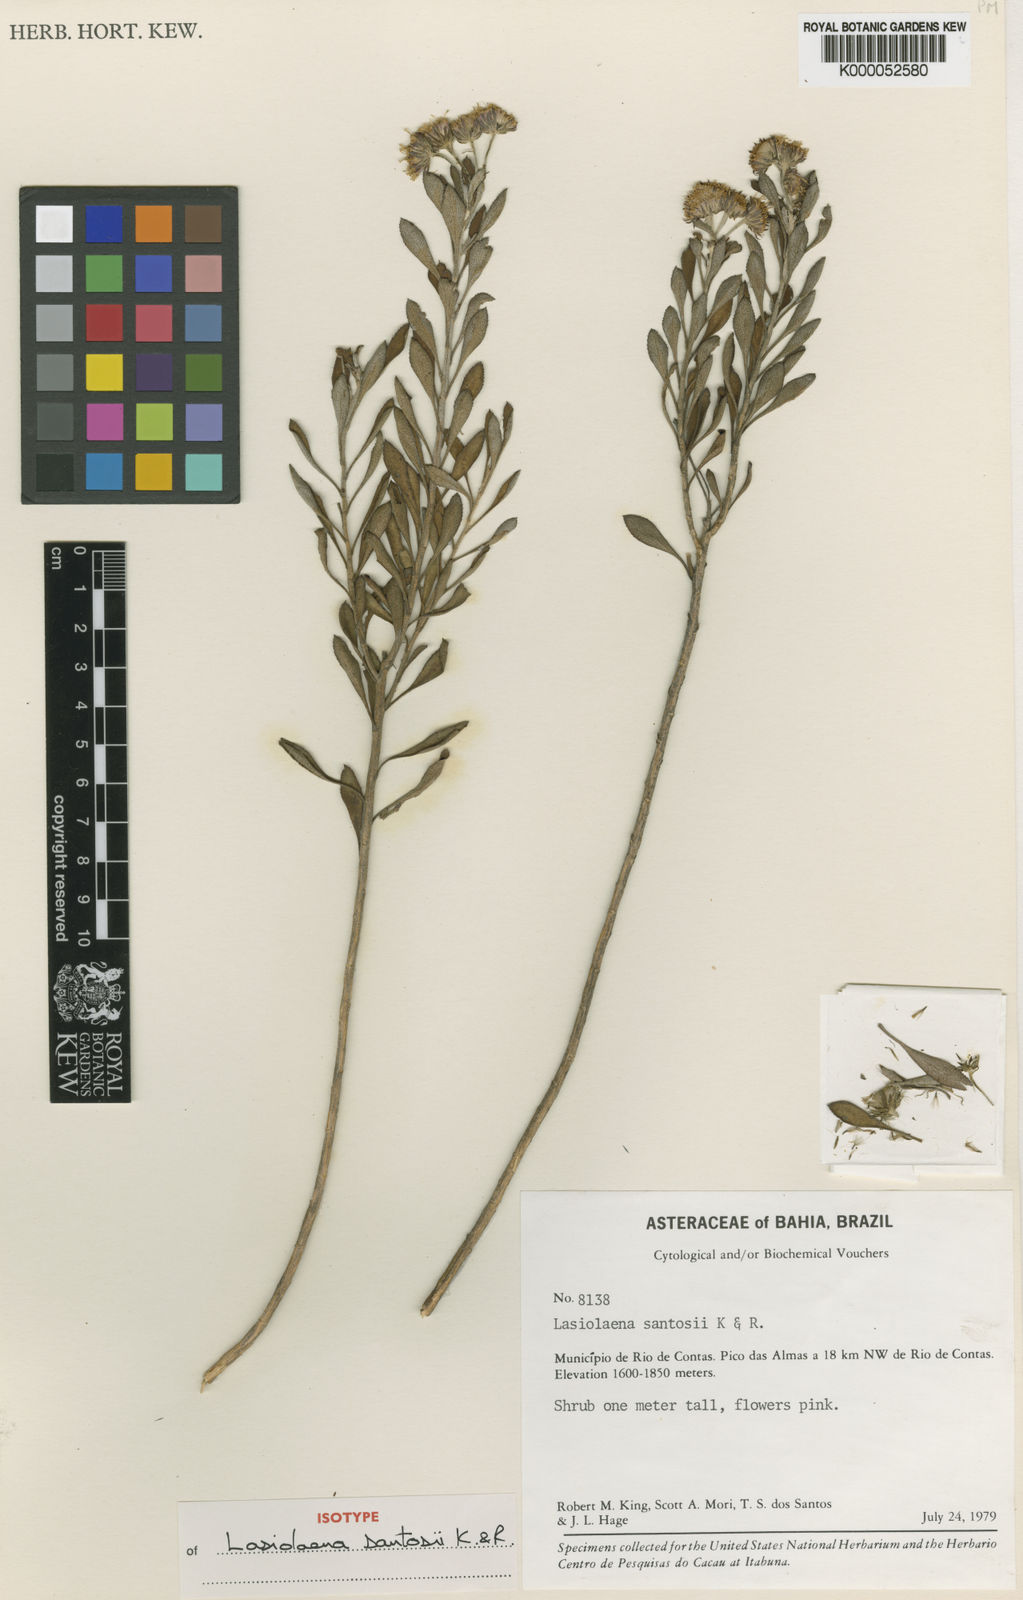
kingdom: Plantae
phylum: Tracheophyta
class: Magnoliopsida
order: Asterales
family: Asteraceae
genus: Lasiolaena
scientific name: Lasiolaena santosii
